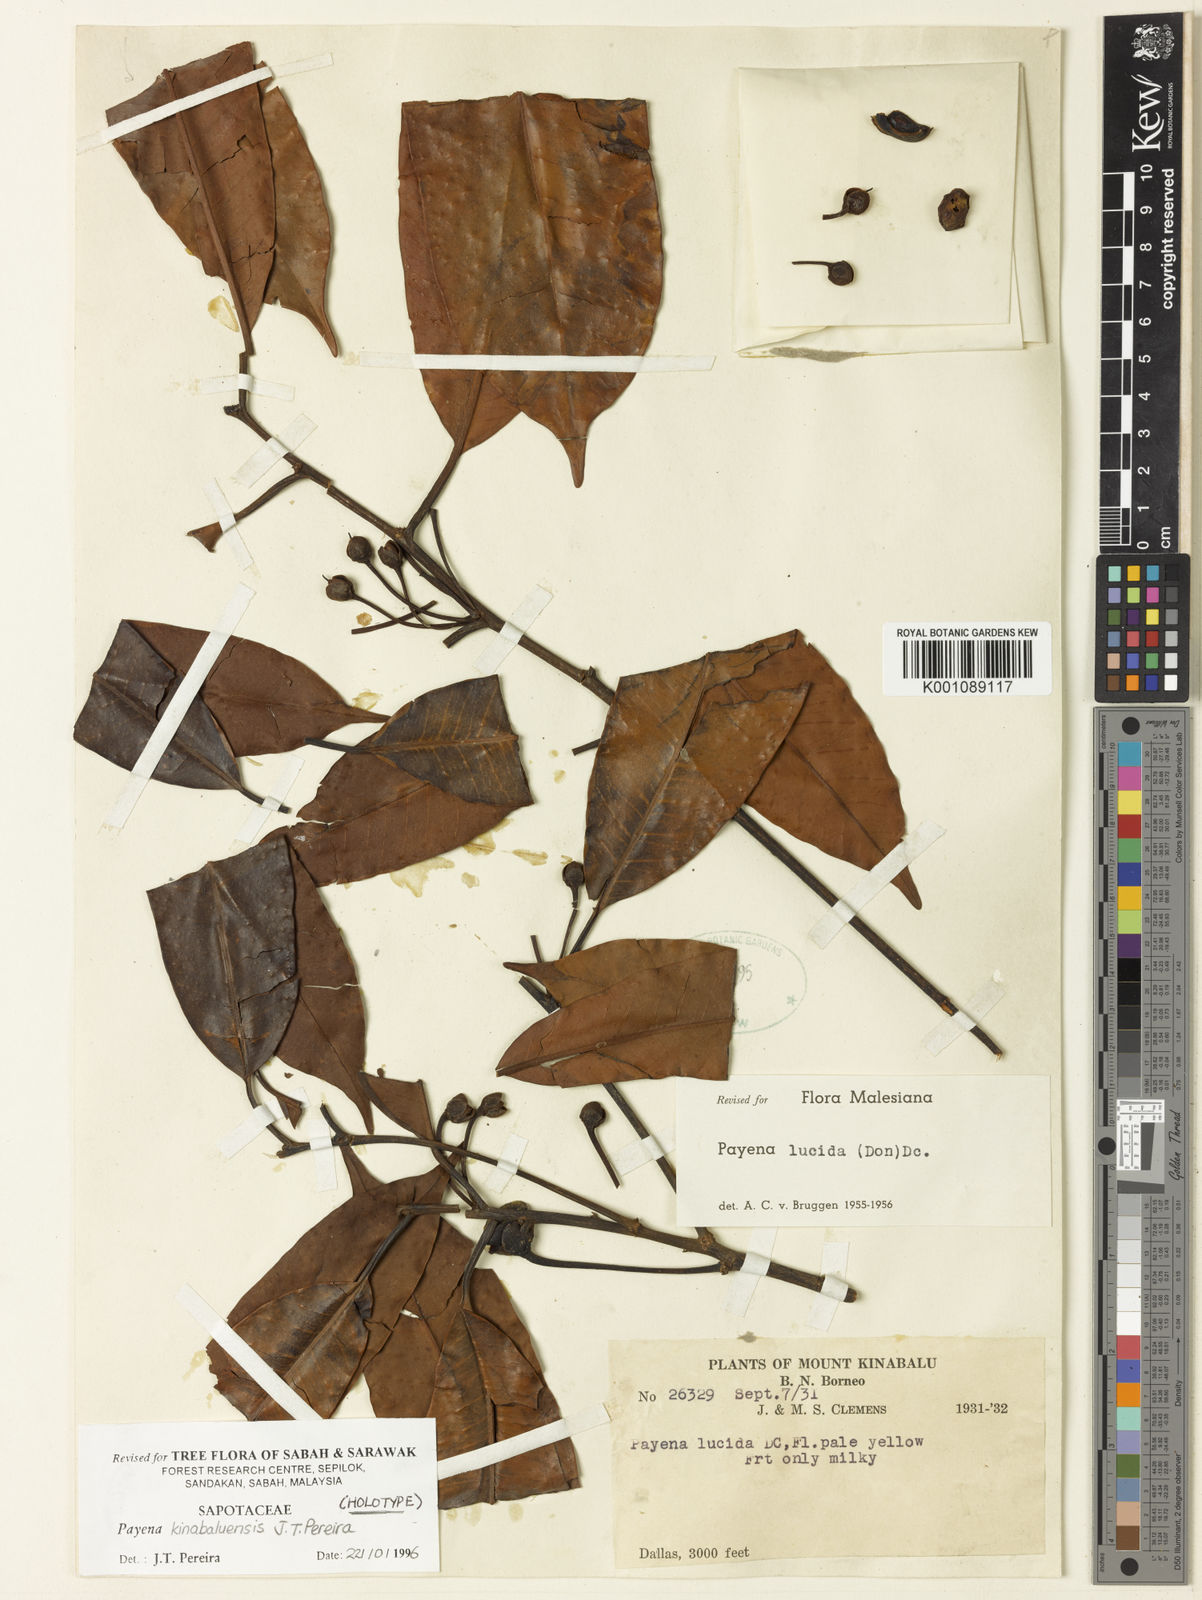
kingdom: Plantae
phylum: Tracheophyta
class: Magnoliopsida
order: Ericales
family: Sapotaceae
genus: Payena
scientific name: Payena kinabaluensis
